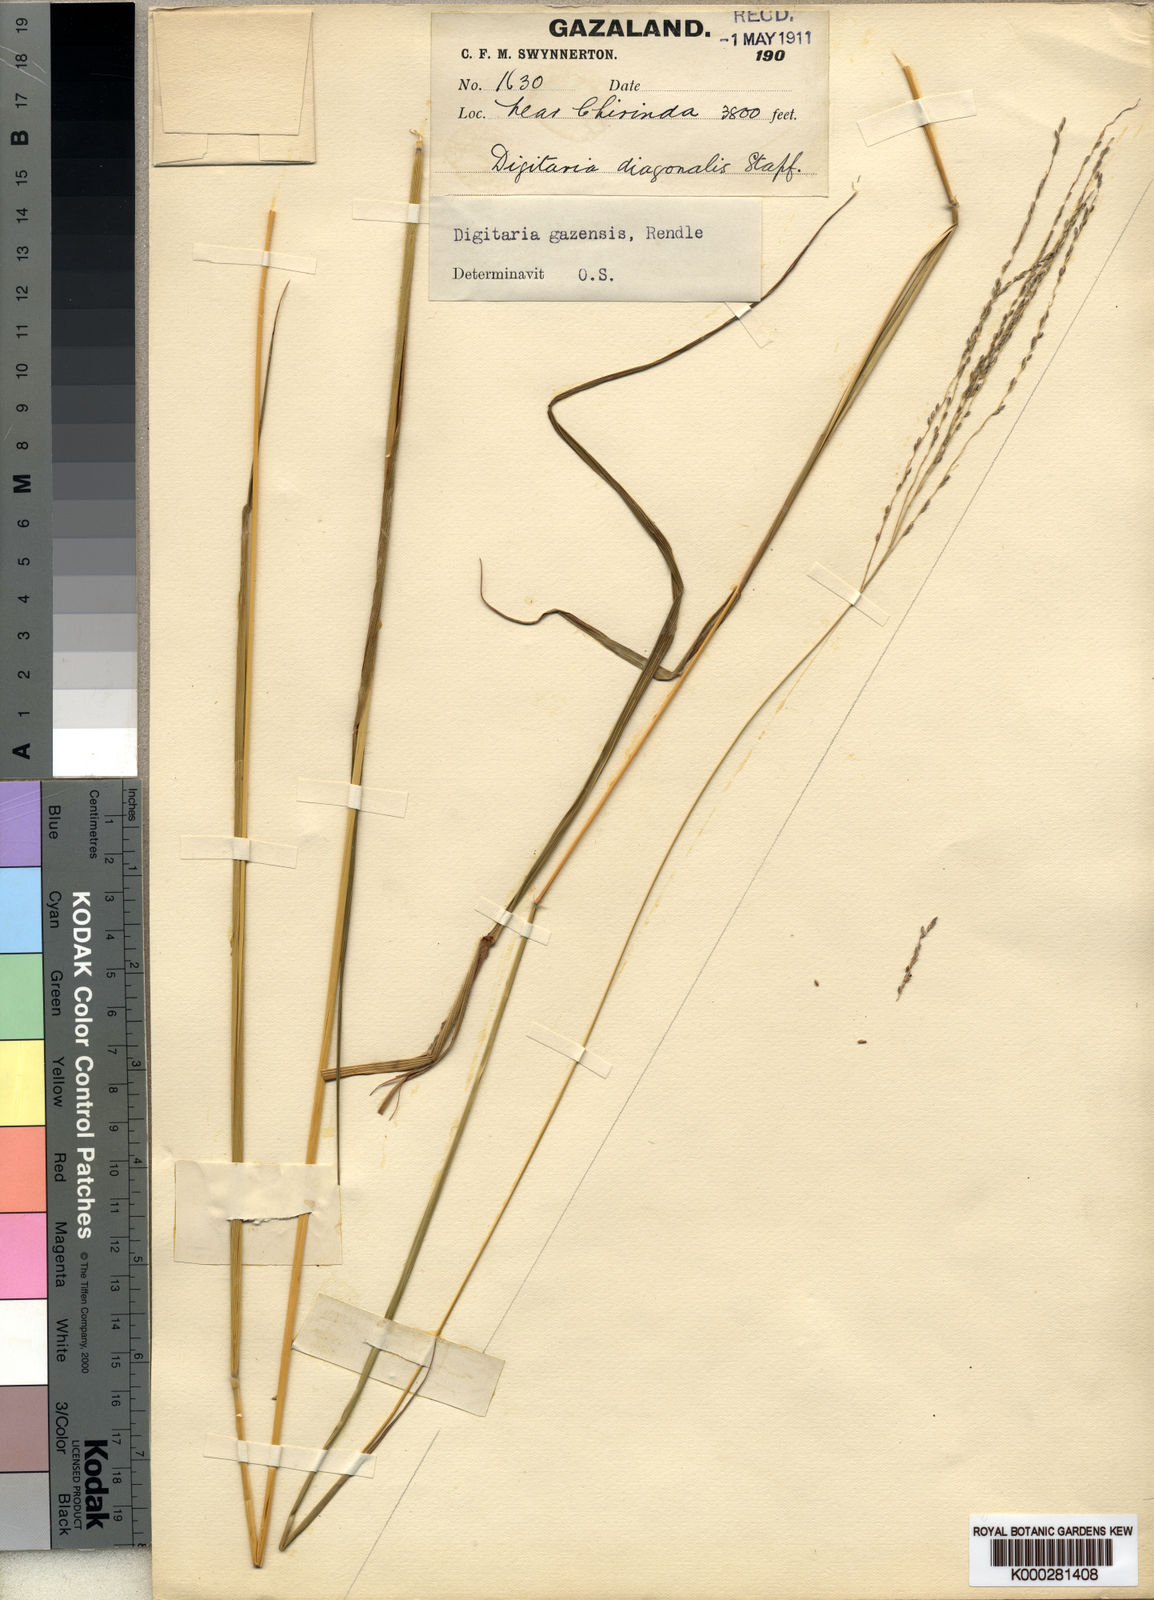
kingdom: Plantae
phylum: Tracheophyta
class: Liliopsida
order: Poales
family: Poaceae
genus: Digitaria
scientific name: Digitaria gazensis
